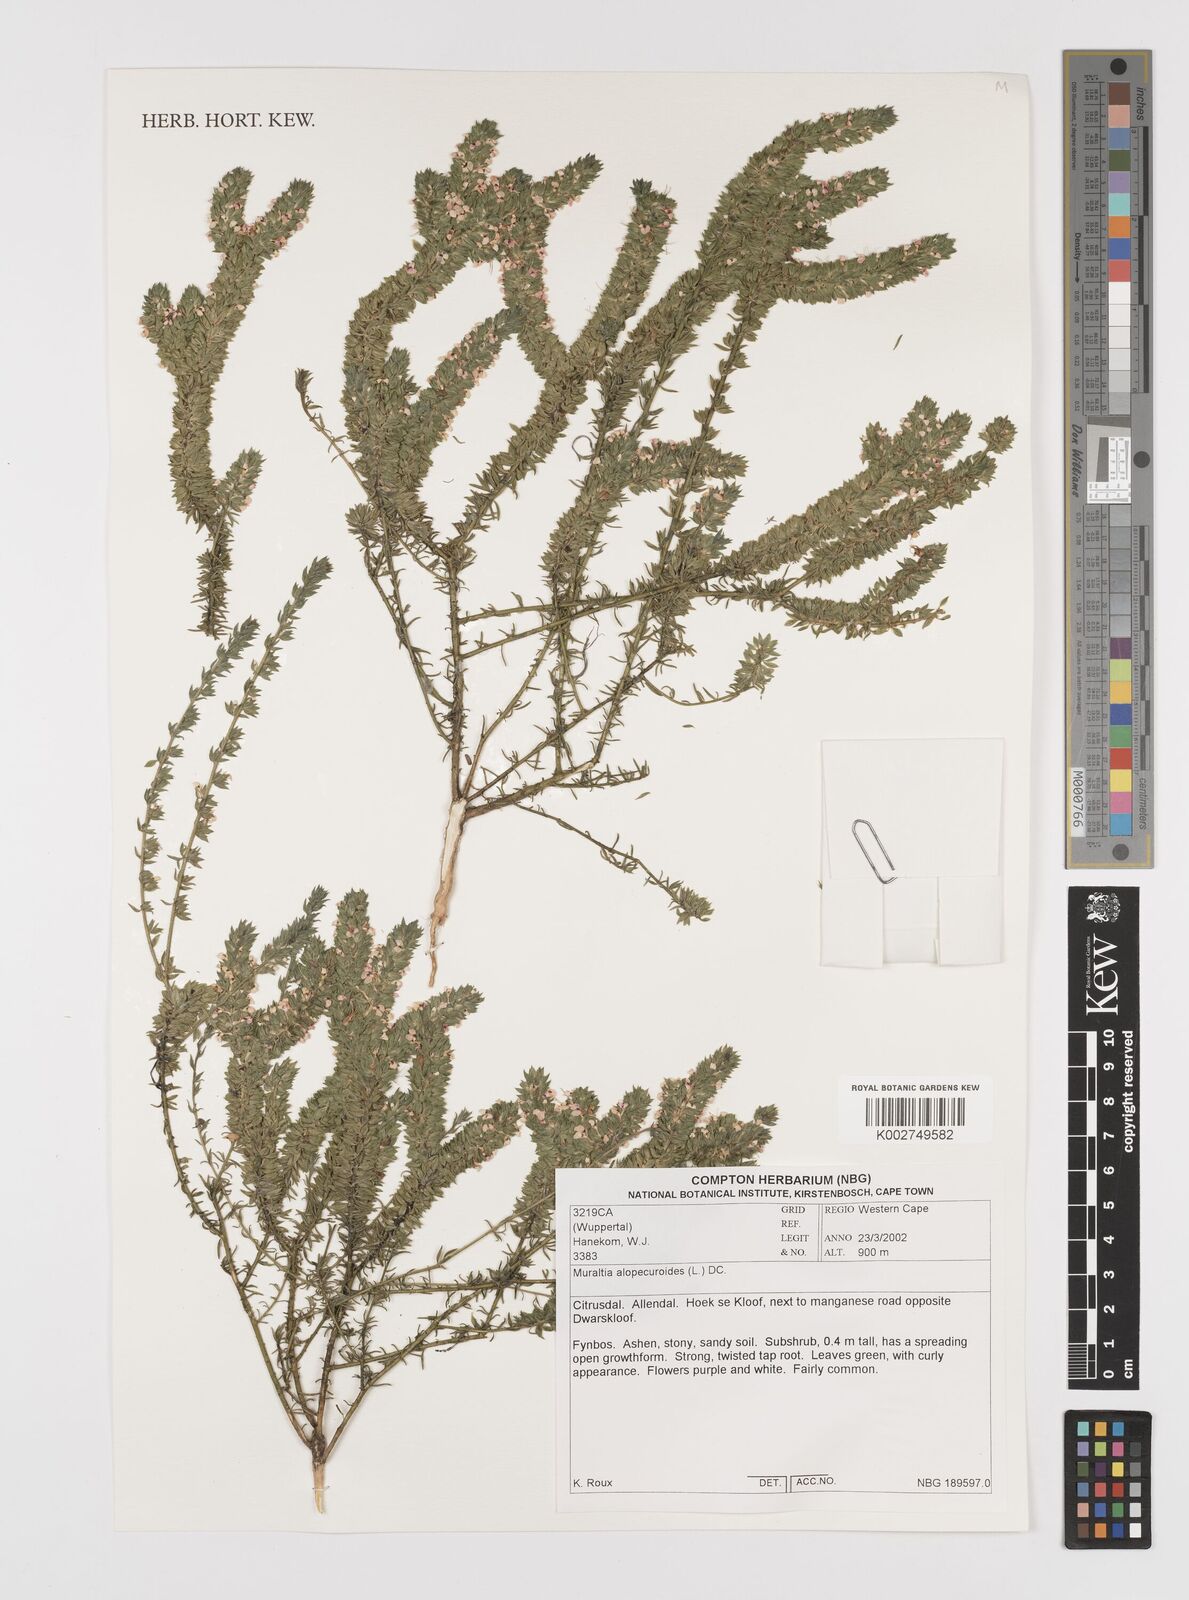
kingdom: Plantae
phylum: Tracheophyta
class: Magnoliopsida
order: Fabales
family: Polygalaceae
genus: Muraltia
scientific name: Muraltia alopecuroides
